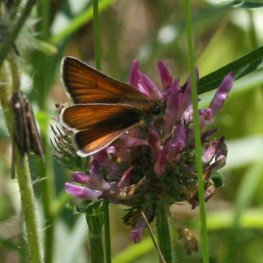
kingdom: Animalia
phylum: Arthropoda
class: Insecta
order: Lepidoptera
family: Hesperiidae
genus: Thymelicus
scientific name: Thymelicus lineola
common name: European Skipper
